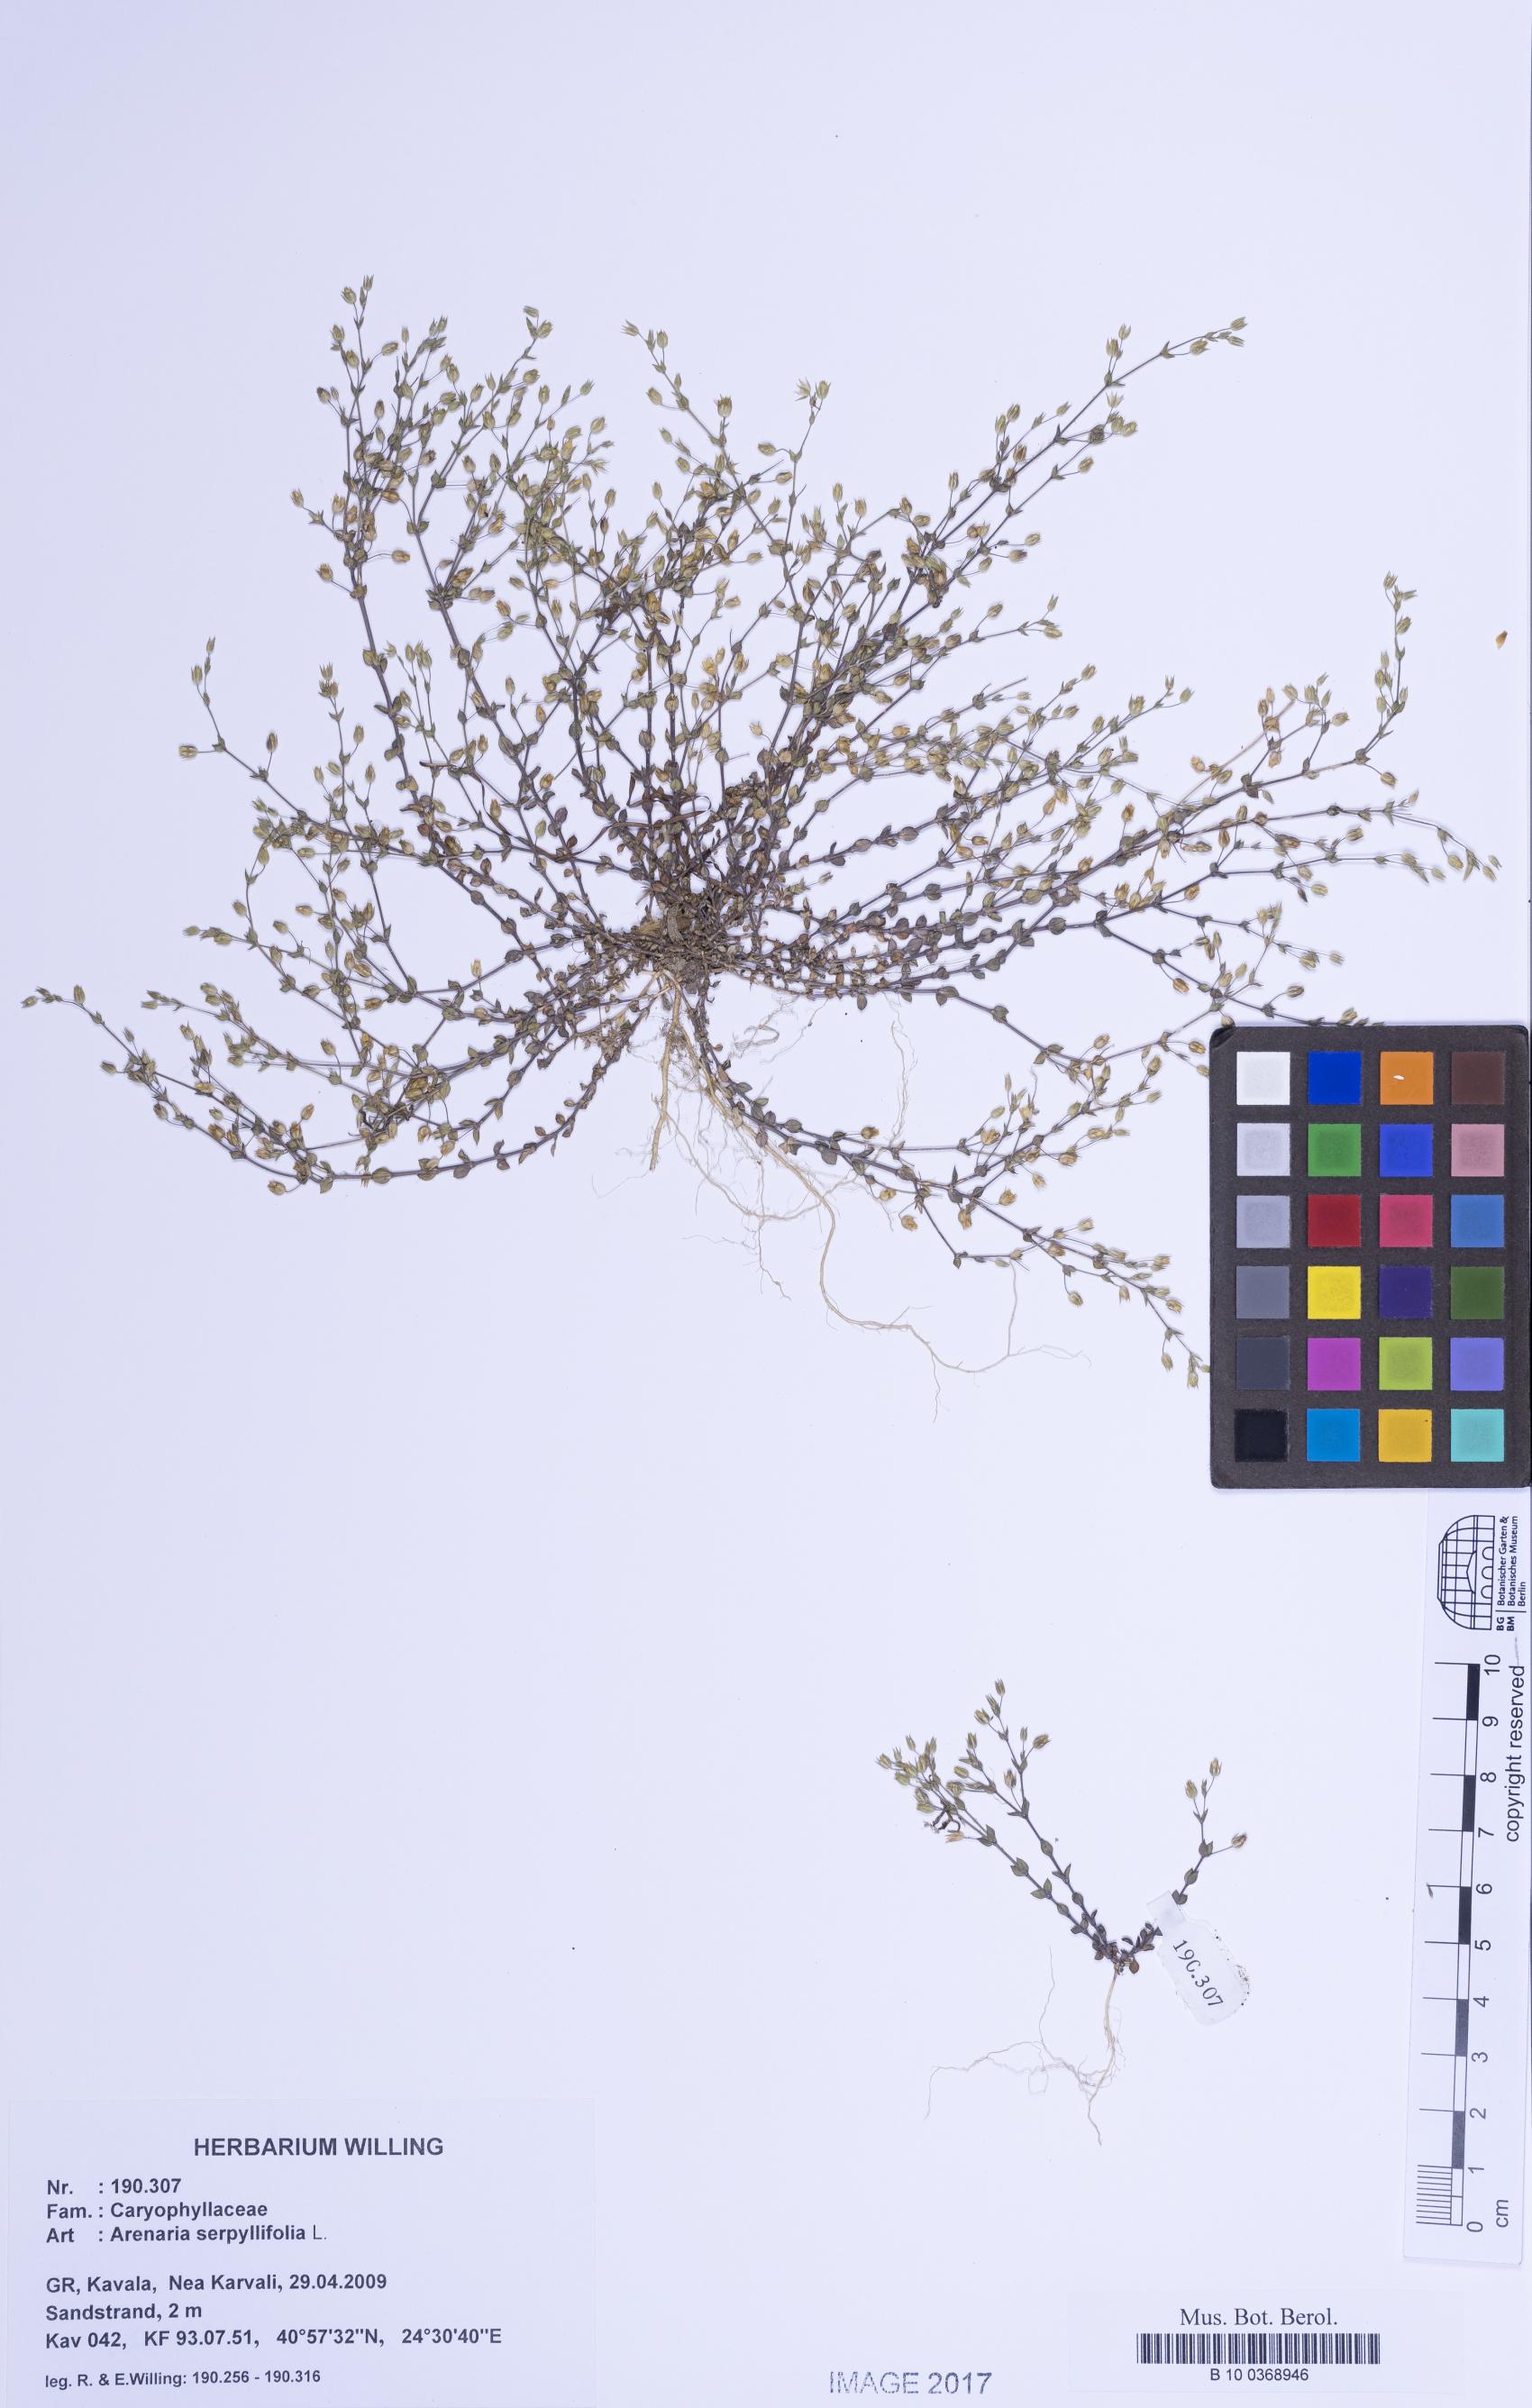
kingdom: Plantae
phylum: Tracheophyta
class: Magnoliopsida
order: Caryophyllales
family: Caryophyllaceae
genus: Arenaria
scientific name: Arenaria serpyllifolia
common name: Thyme-leaved sandwort
